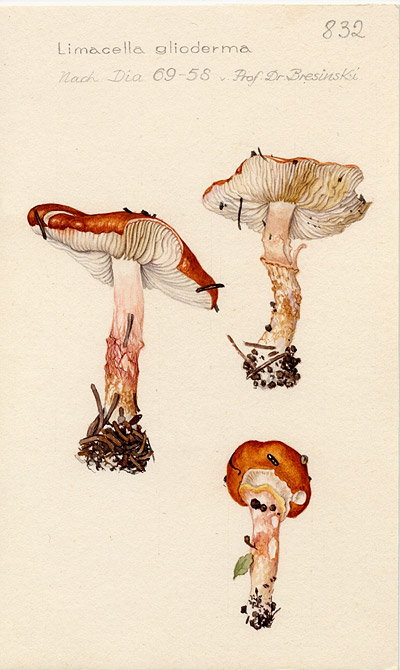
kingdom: Fungi
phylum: Basidiomycota
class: Agaricomycetes
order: Agaricales
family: Amanitaceae
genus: Limacella
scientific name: Limacella delicata
